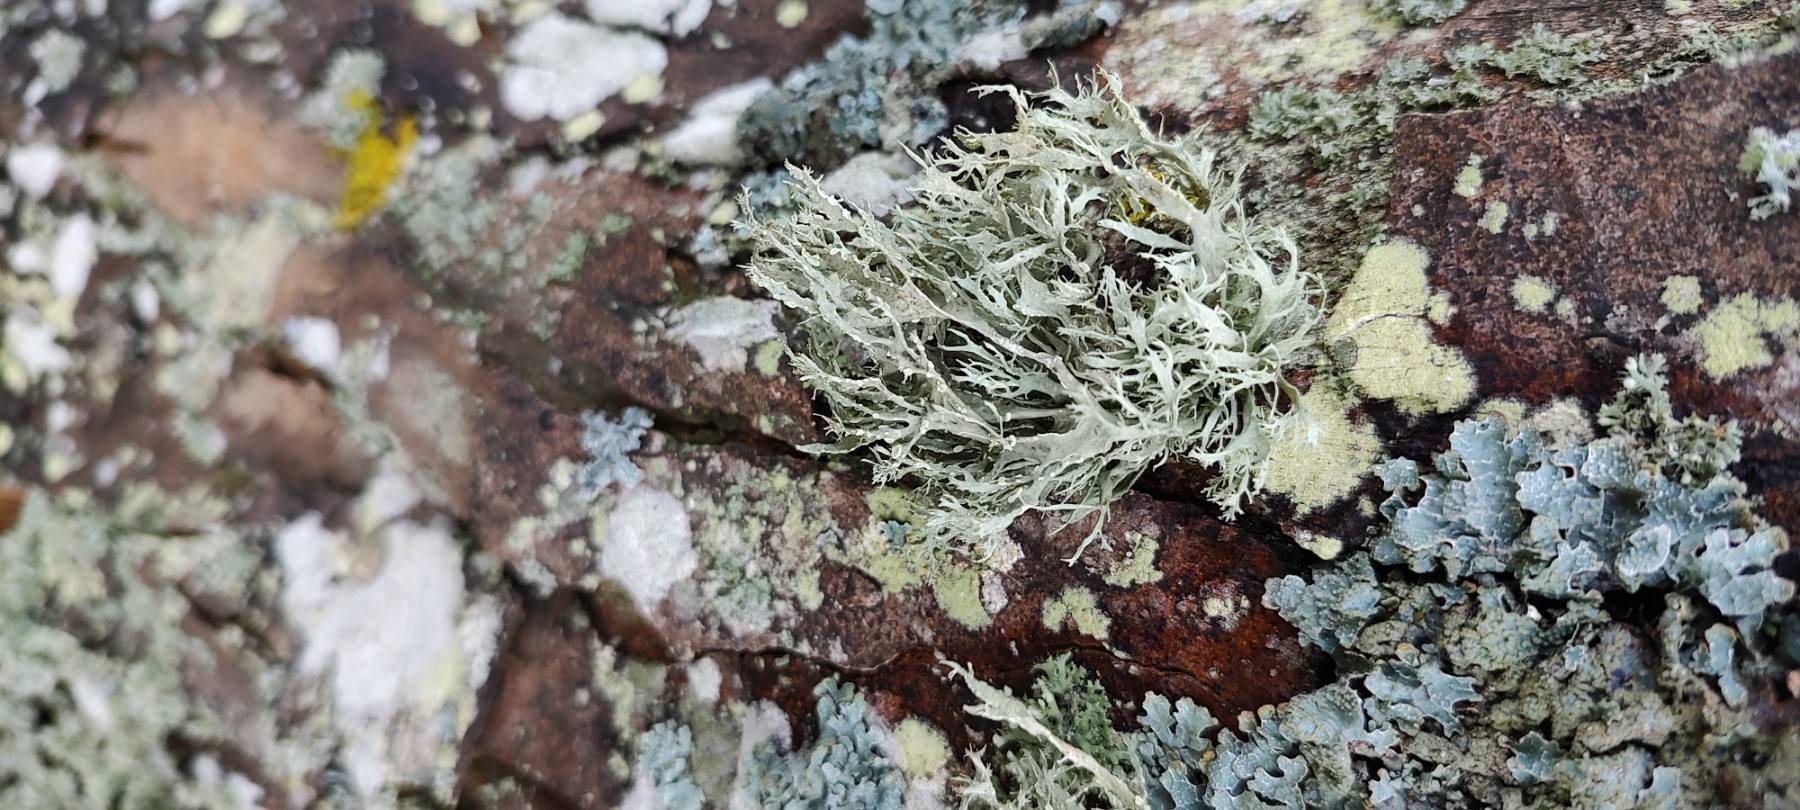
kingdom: Fungi
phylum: Ascomycota
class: Lecanoromycetes
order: Lecanorales
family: Ramalinaceae
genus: Ramalina
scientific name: Ramalina farinacea
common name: melet grenlav
